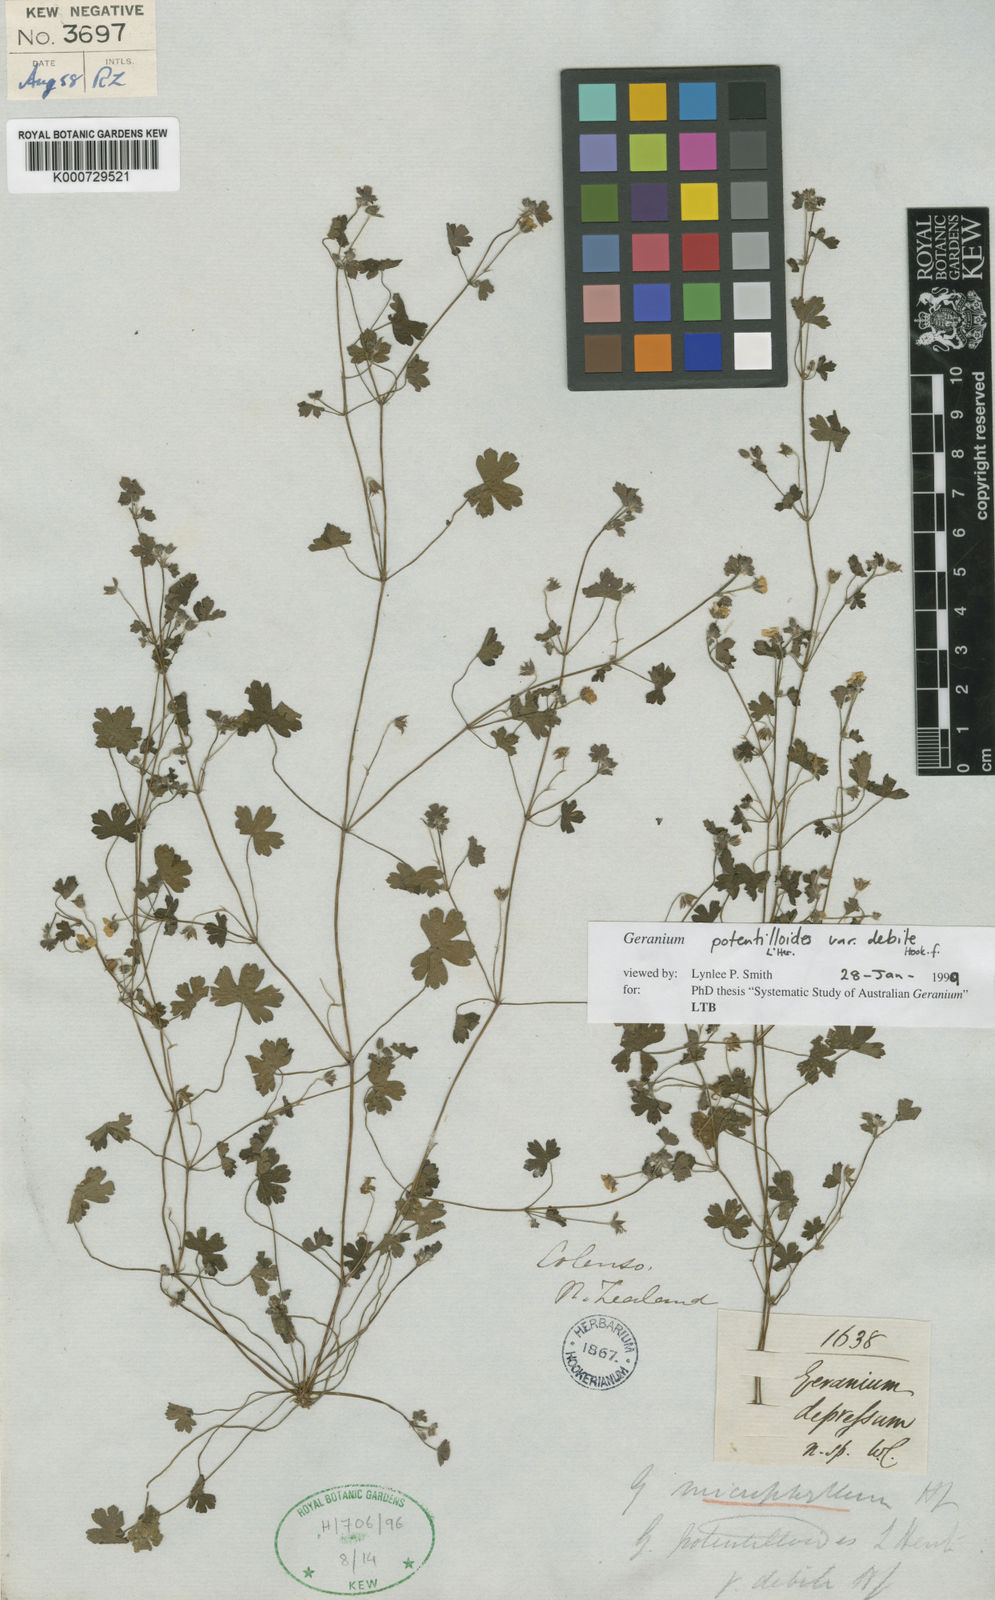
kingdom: Plantae
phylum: Tracheophyta
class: Magnoliopsida
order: Geraniales
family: Geraniaceae
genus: Geranium
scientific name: Geranium
